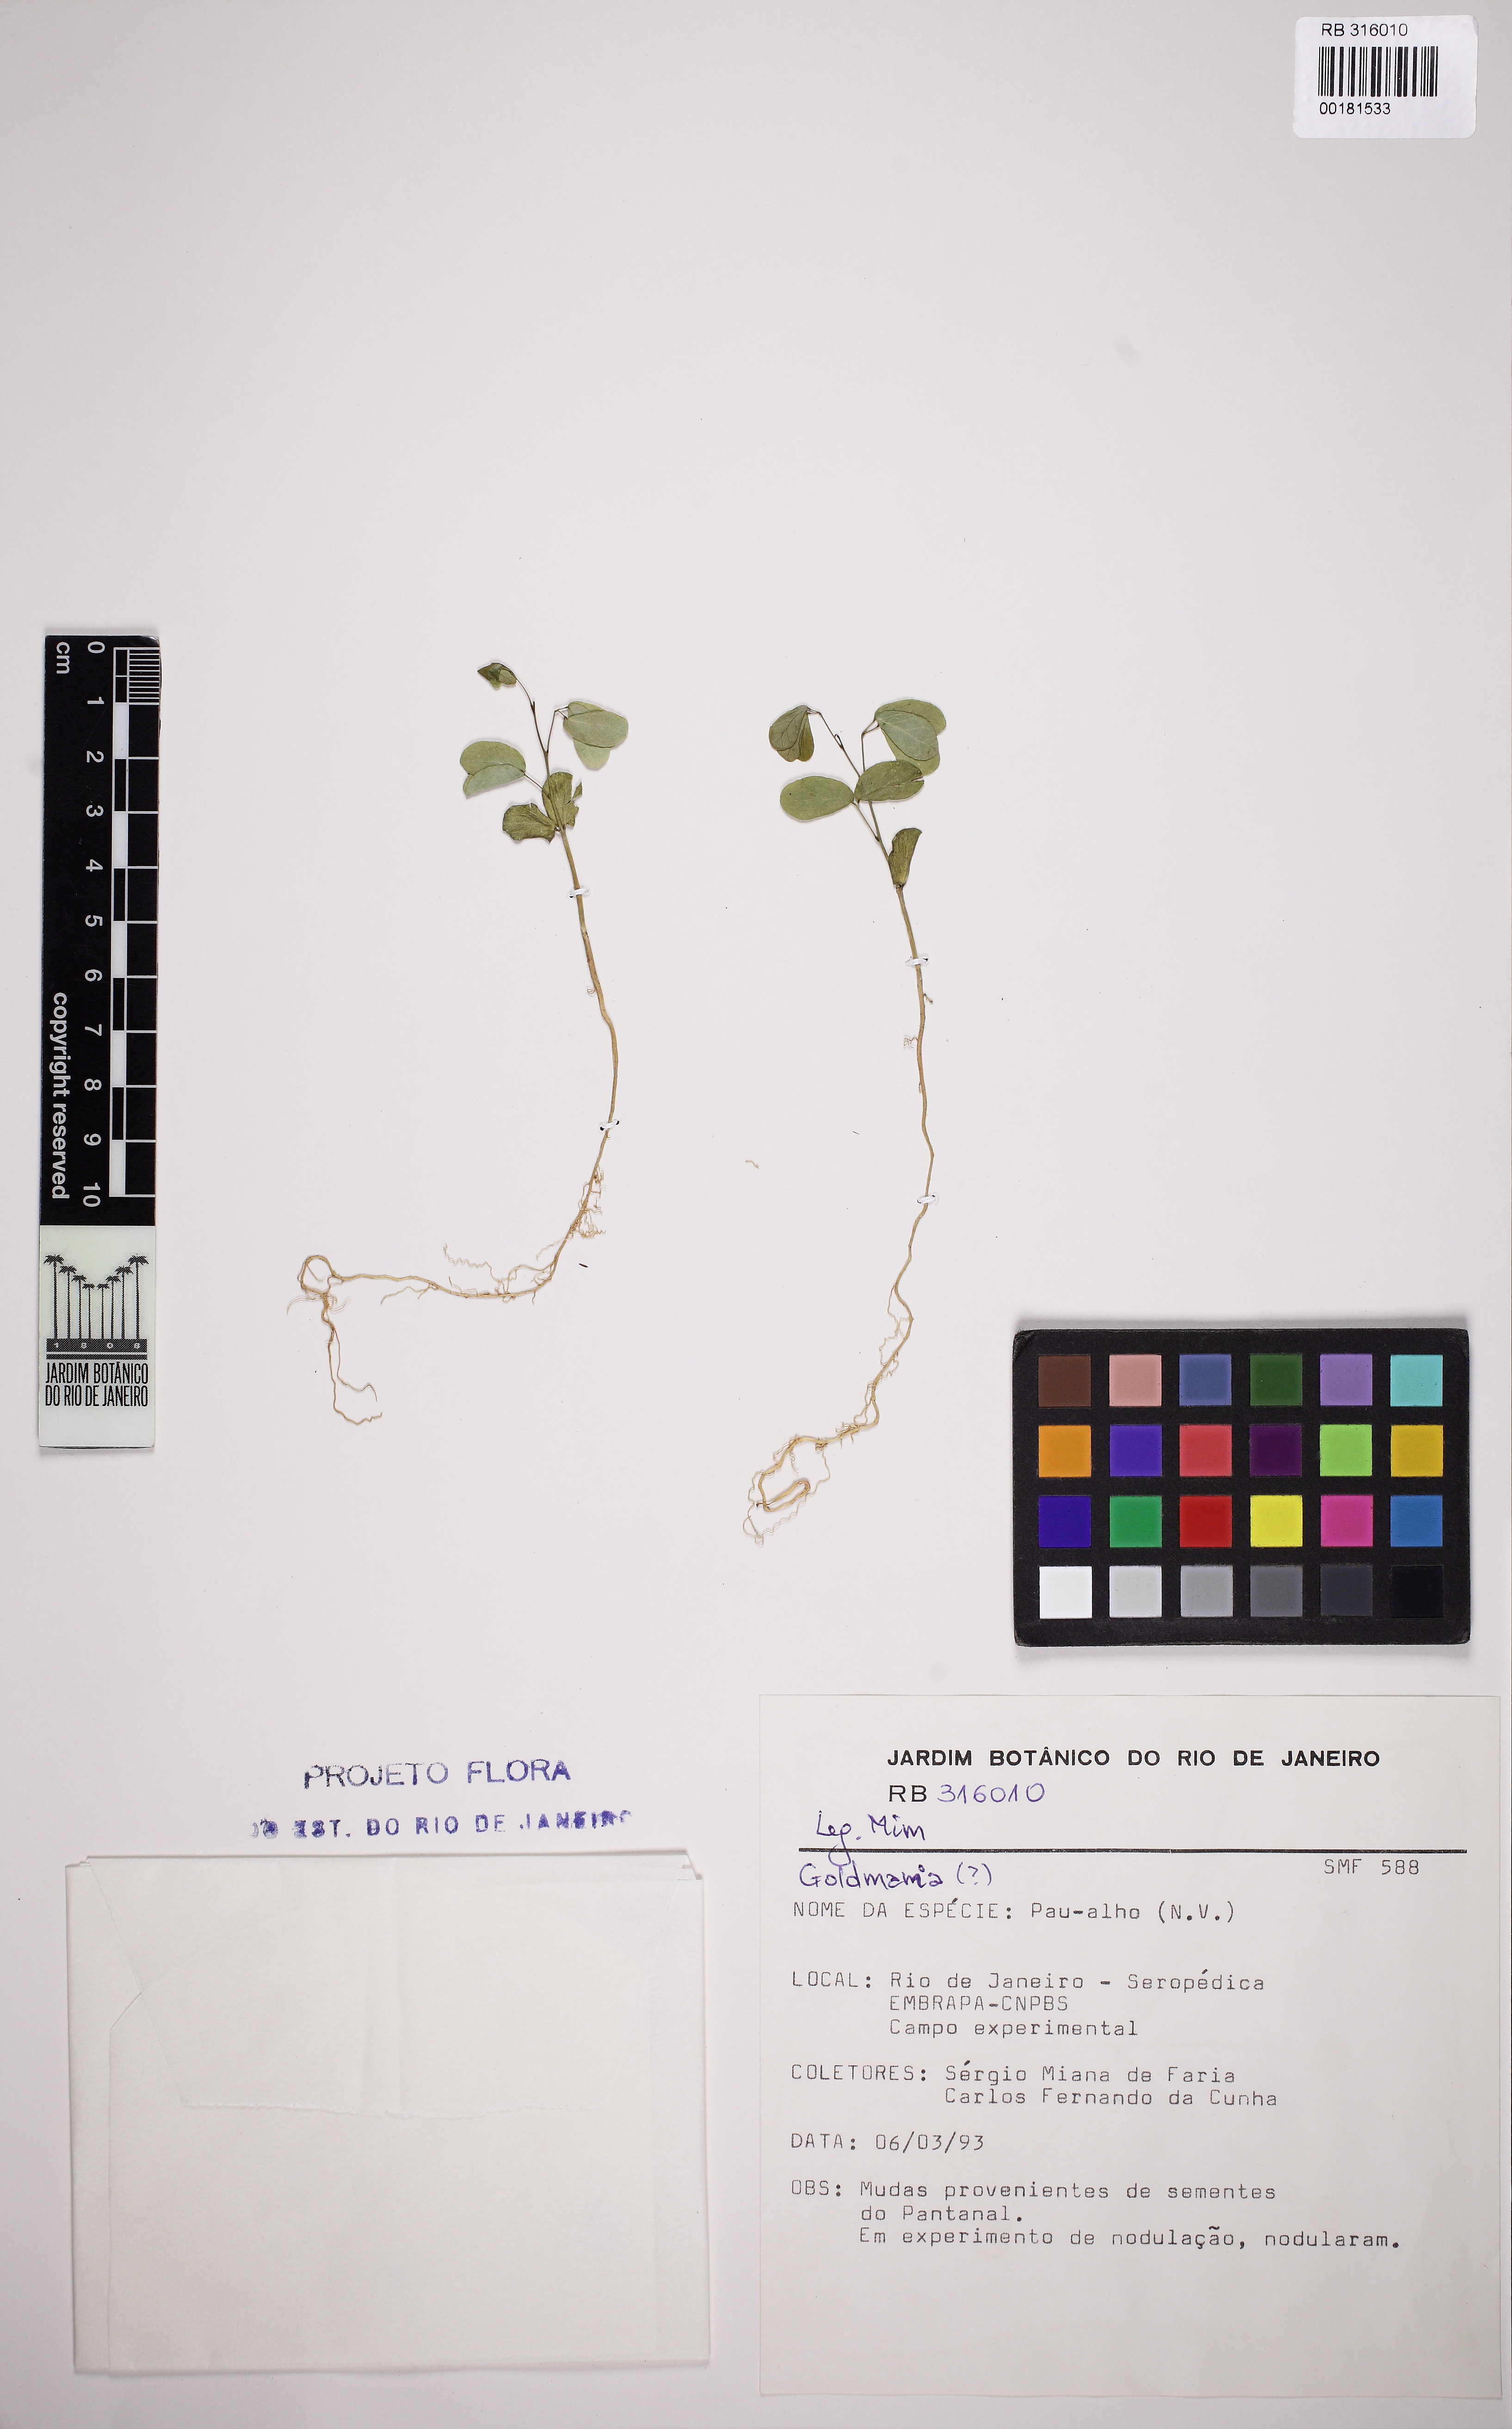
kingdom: Plantae
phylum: Tracheophyta
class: Magnoliopsida
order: Fabales
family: Fabaceae
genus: Microlobius
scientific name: Microlobius foetidus
